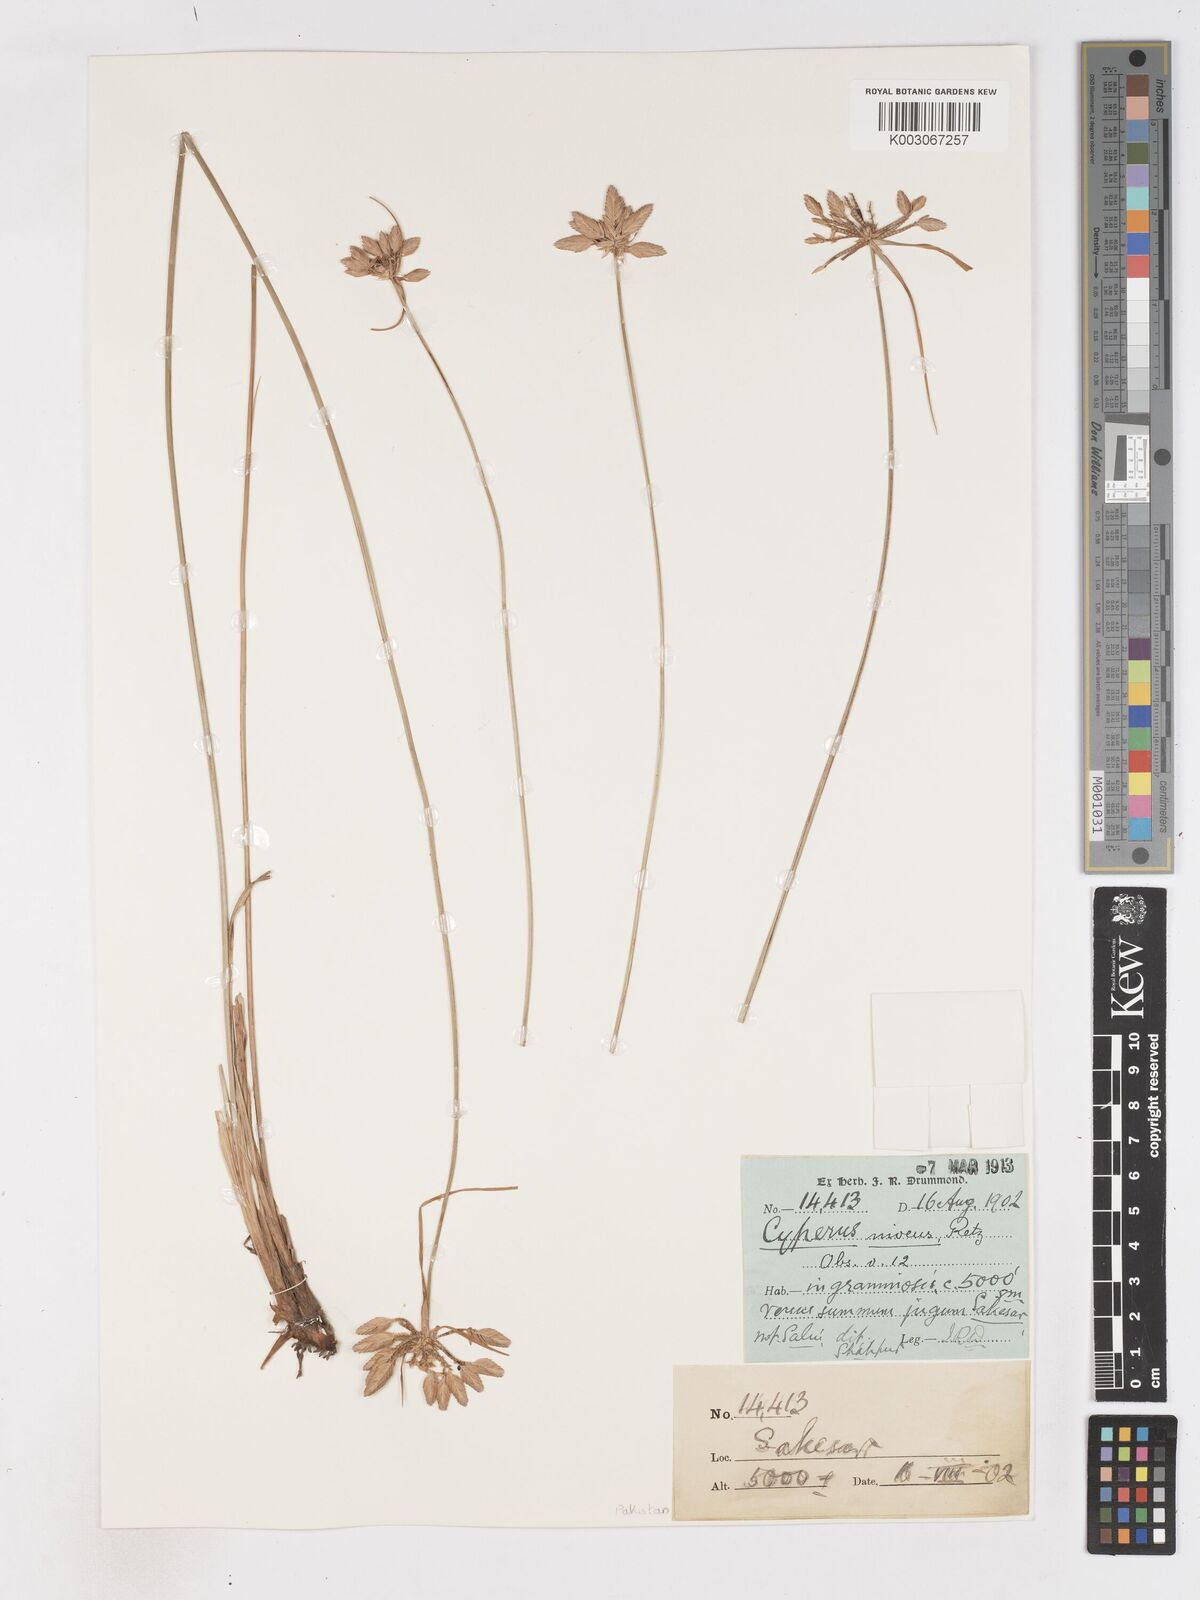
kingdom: Plantae
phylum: Tracheophyta
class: Liliopsida
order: Poales
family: Cyperaceae
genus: Cyperus
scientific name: Cyperus niveus
